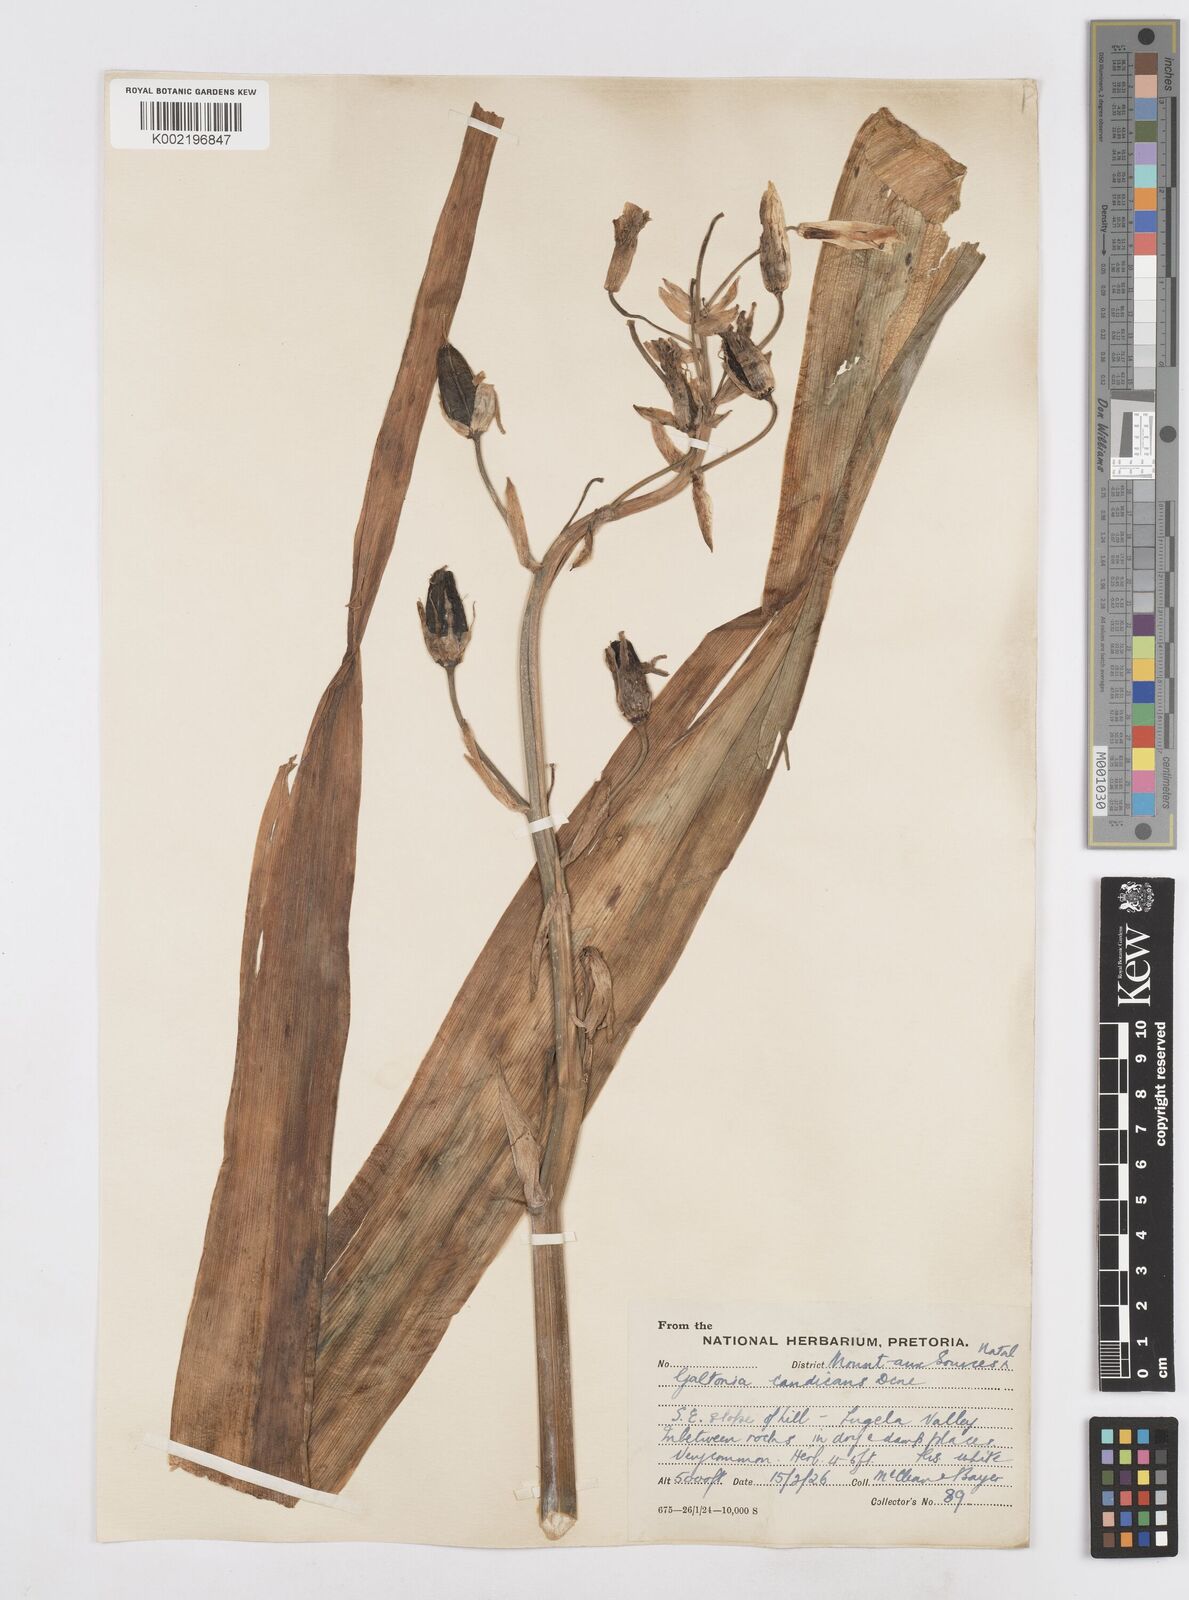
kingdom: Plantae
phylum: Tracheophyta
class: Liliopsida
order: Asparagales
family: Asparagaceae
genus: Ornithogalum
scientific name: Ornithogalum candicans
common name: Summer-hyacinth
